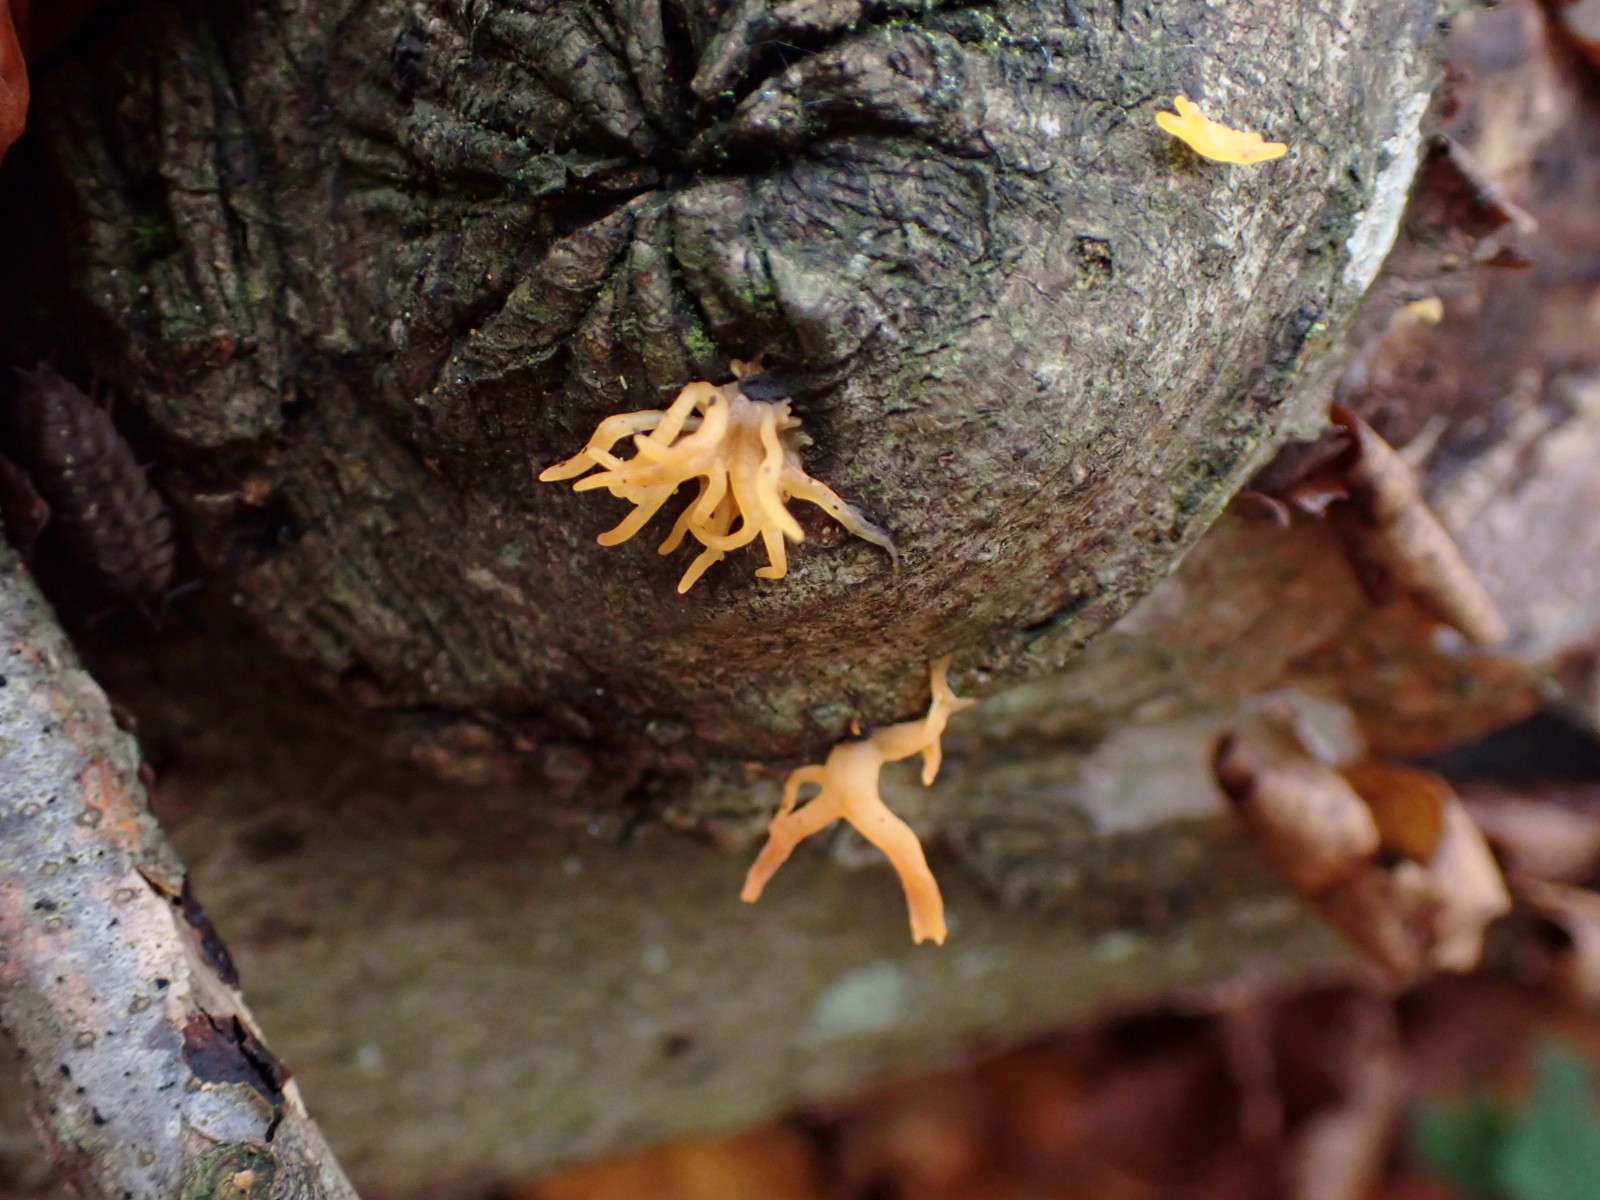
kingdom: Fungi
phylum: Basidiomycota
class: Dacrymycetes
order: Dacrymycetales
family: Dacrymycetaceae
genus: Calocera
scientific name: Calocera cornea
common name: liden guldgaffel
